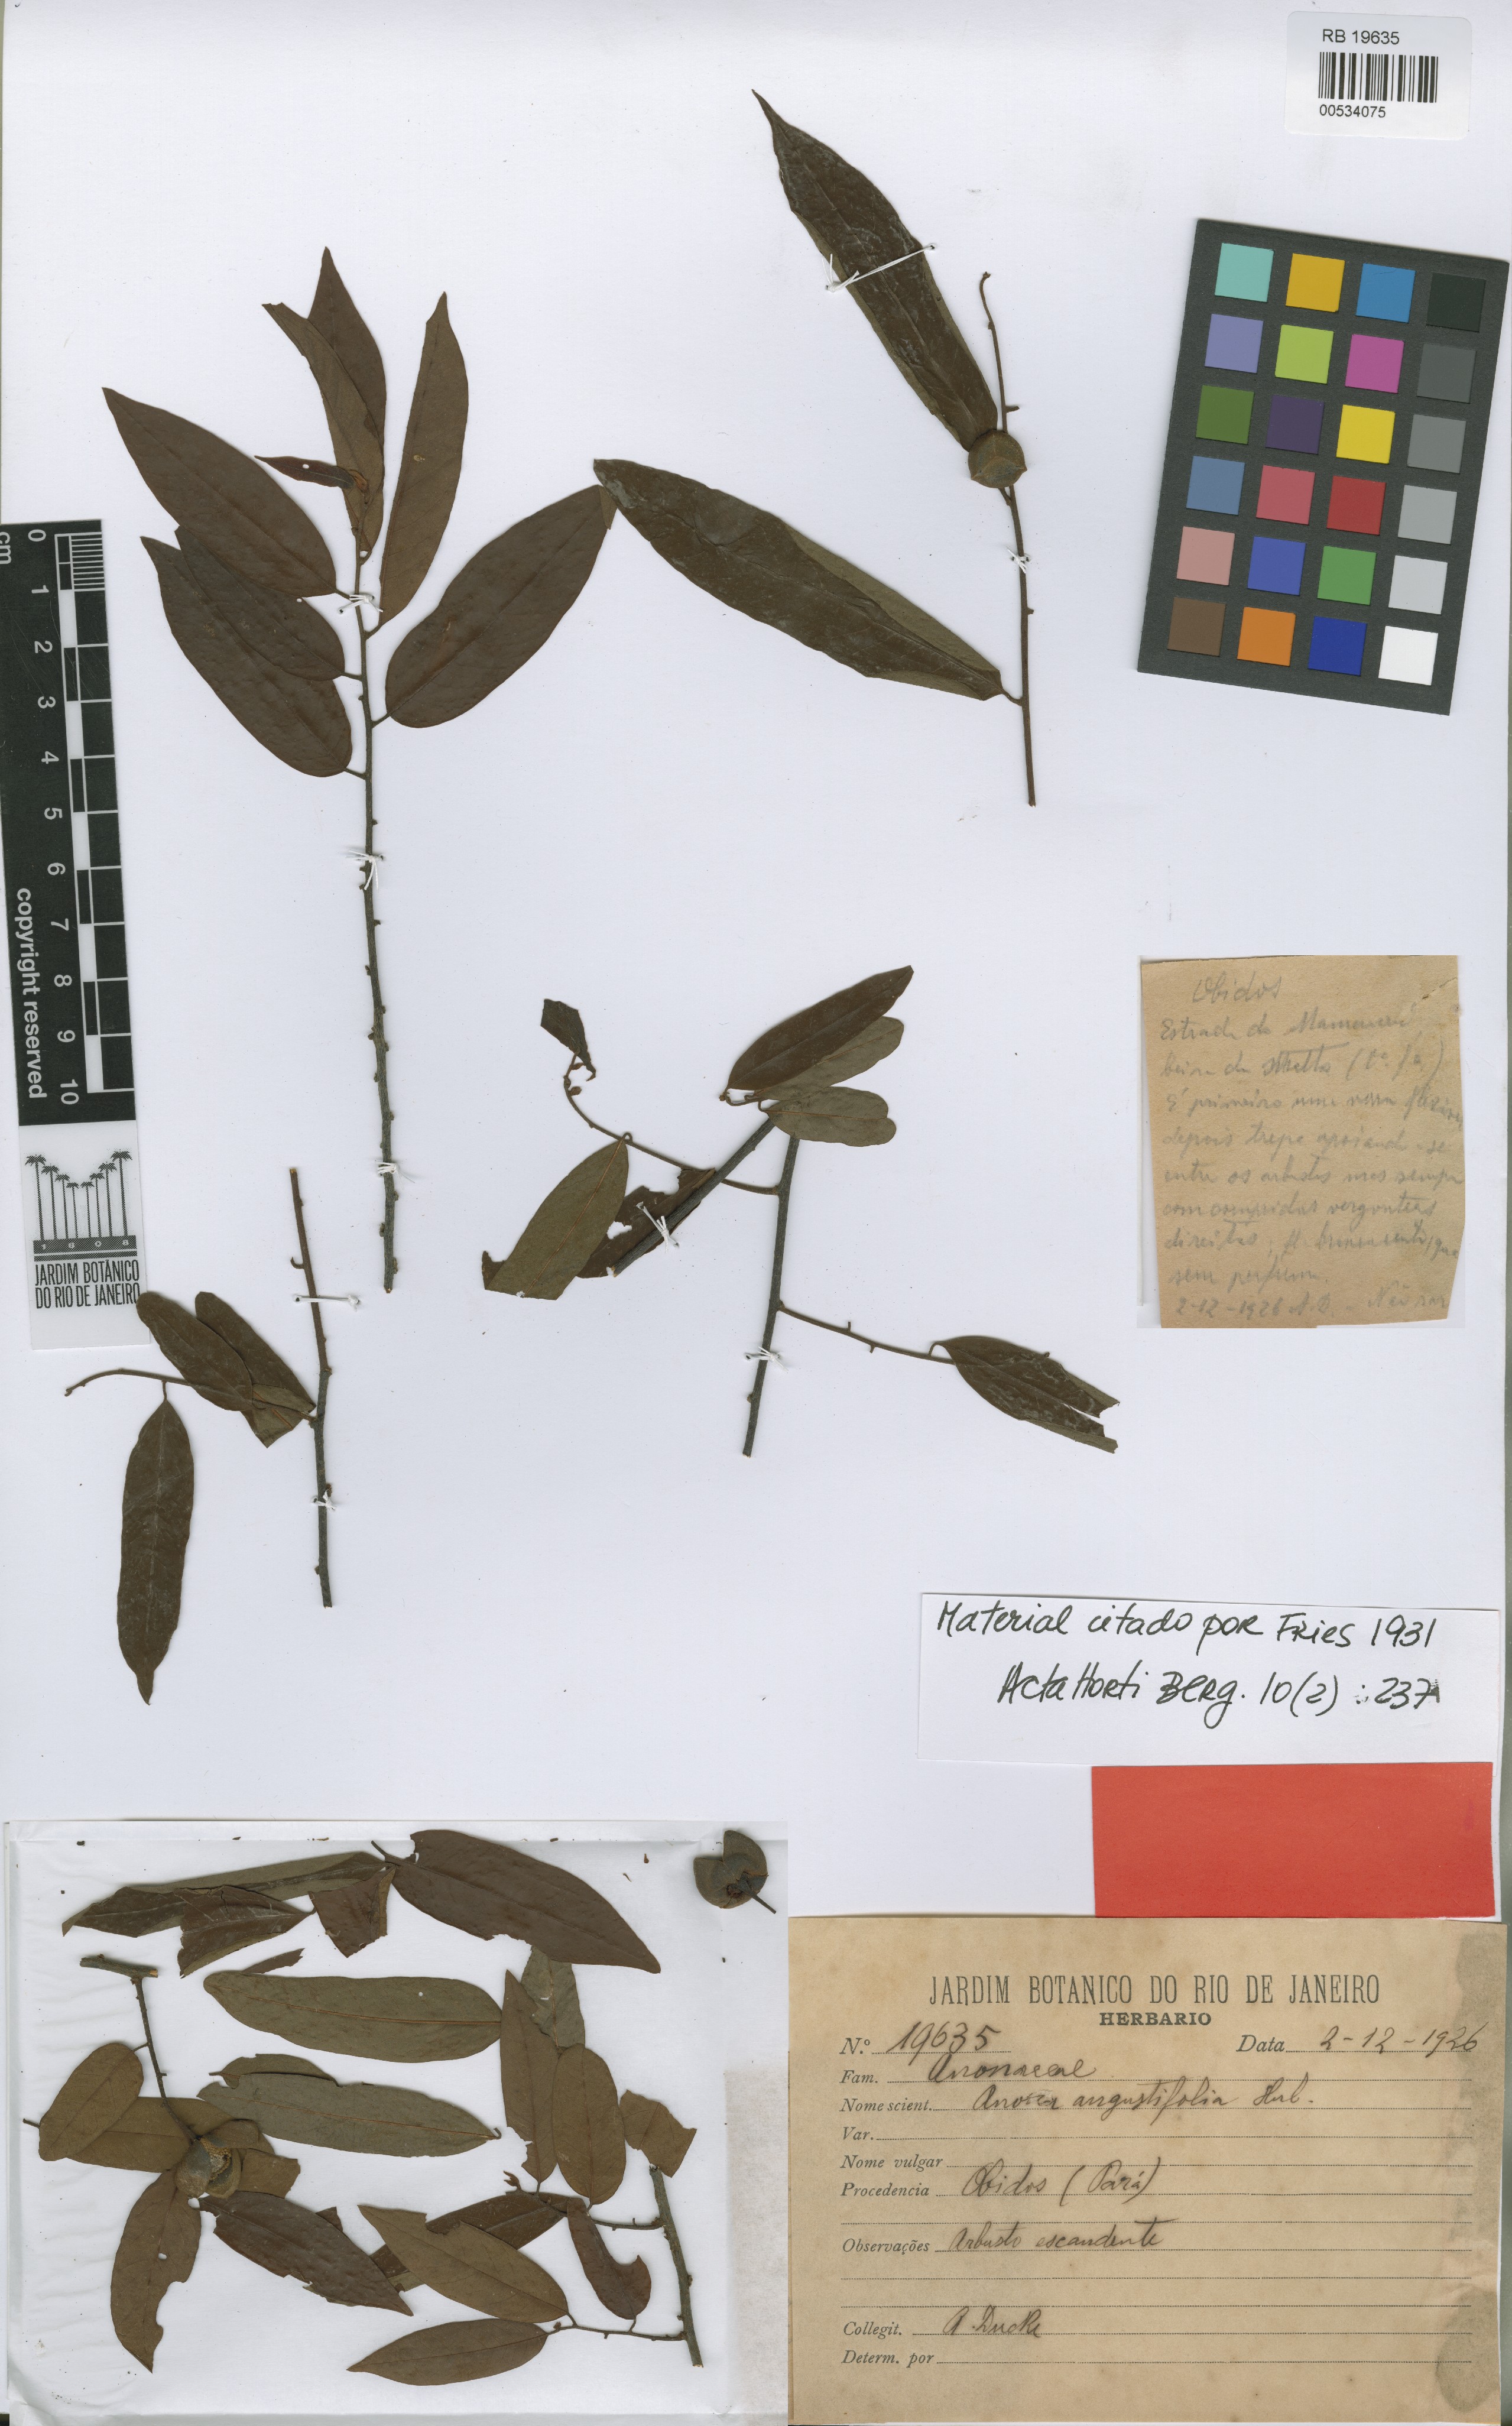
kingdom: Plantae
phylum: Tracheophyta
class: Magnoliopsida
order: Magnoliales
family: Annonaceae
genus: Annona
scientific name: Annona angustifolia
